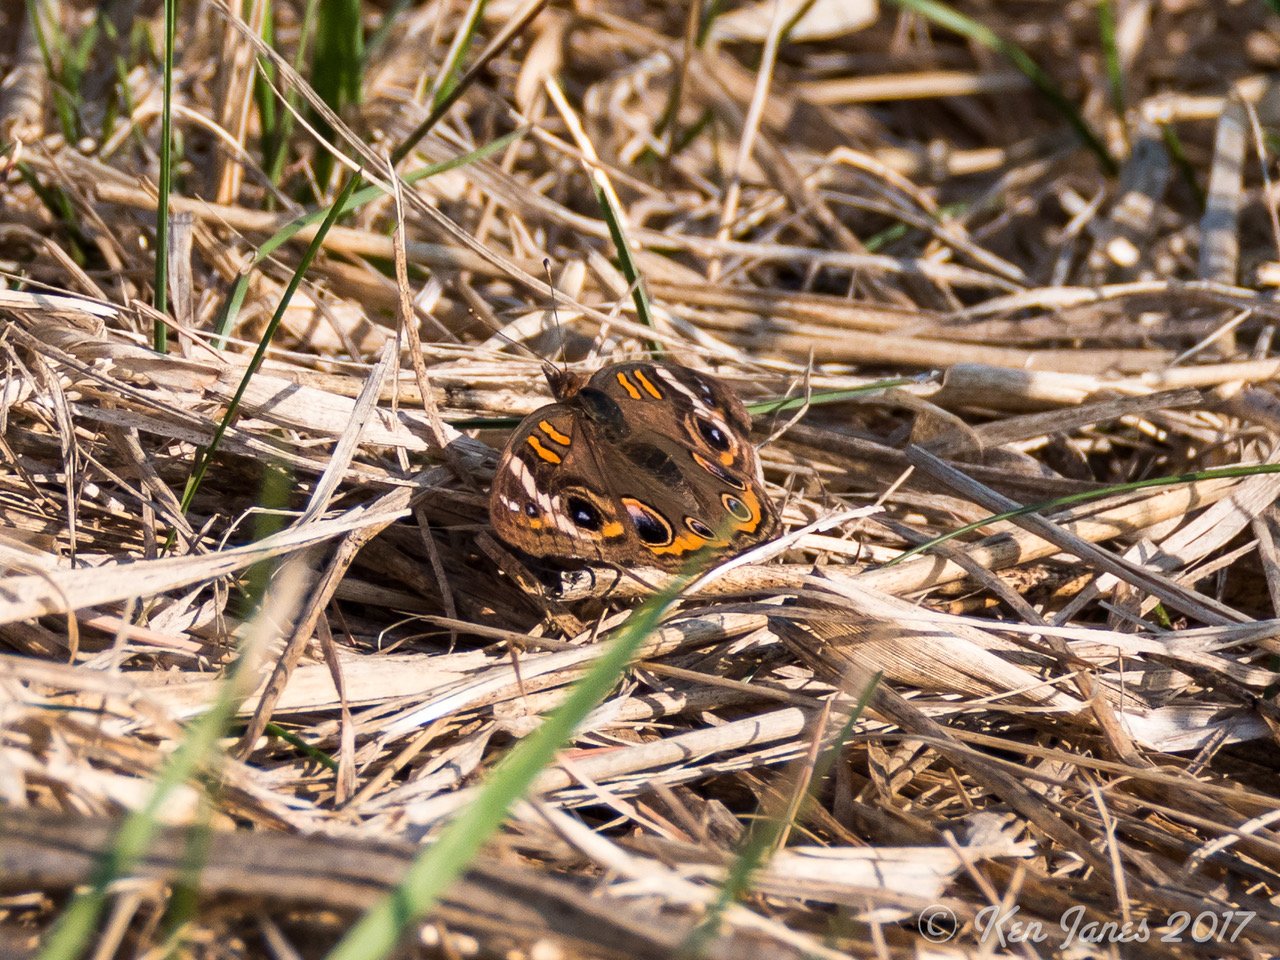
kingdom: Animalia
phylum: Arthropoda
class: Insecta
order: Lepidoptera
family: Nymphalidae
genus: Junonia
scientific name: Junonia coenia
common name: Common Buckeye
